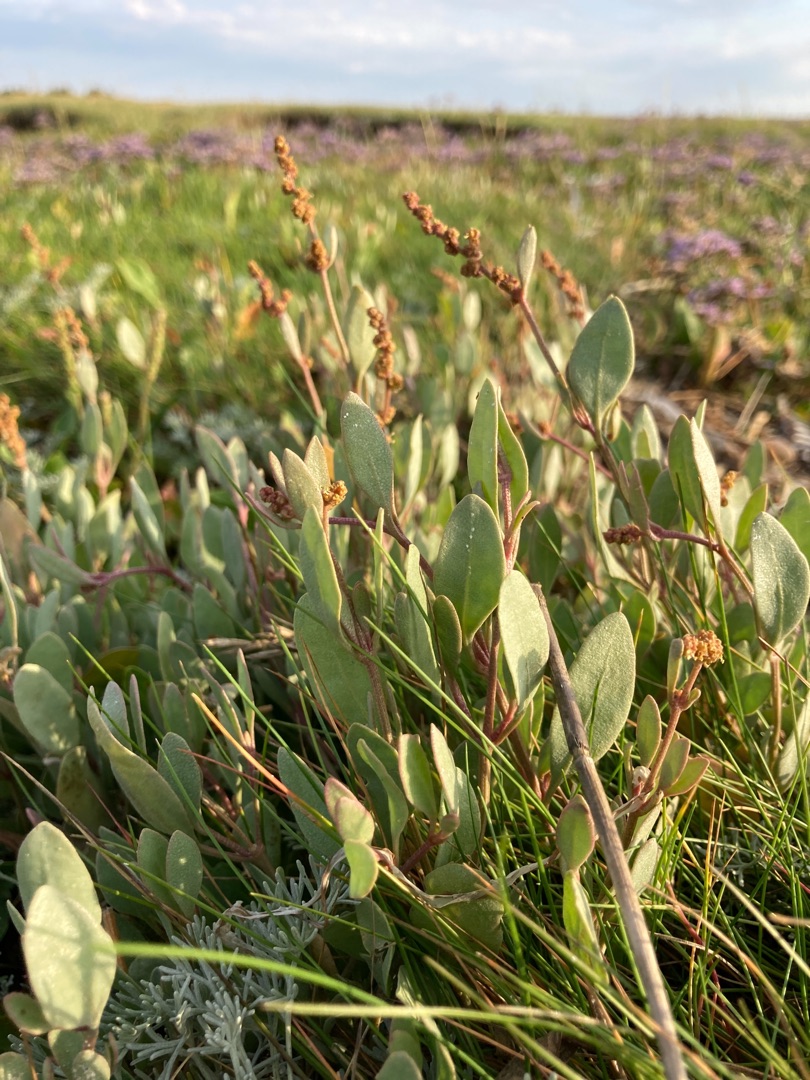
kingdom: Plantae
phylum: Tracheophyta
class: Magnoliopsida
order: Caryophyllales
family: Amaranthaceae
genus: Halimione
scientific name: Halimione portulacoides
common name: Stilkløs kilebæger
